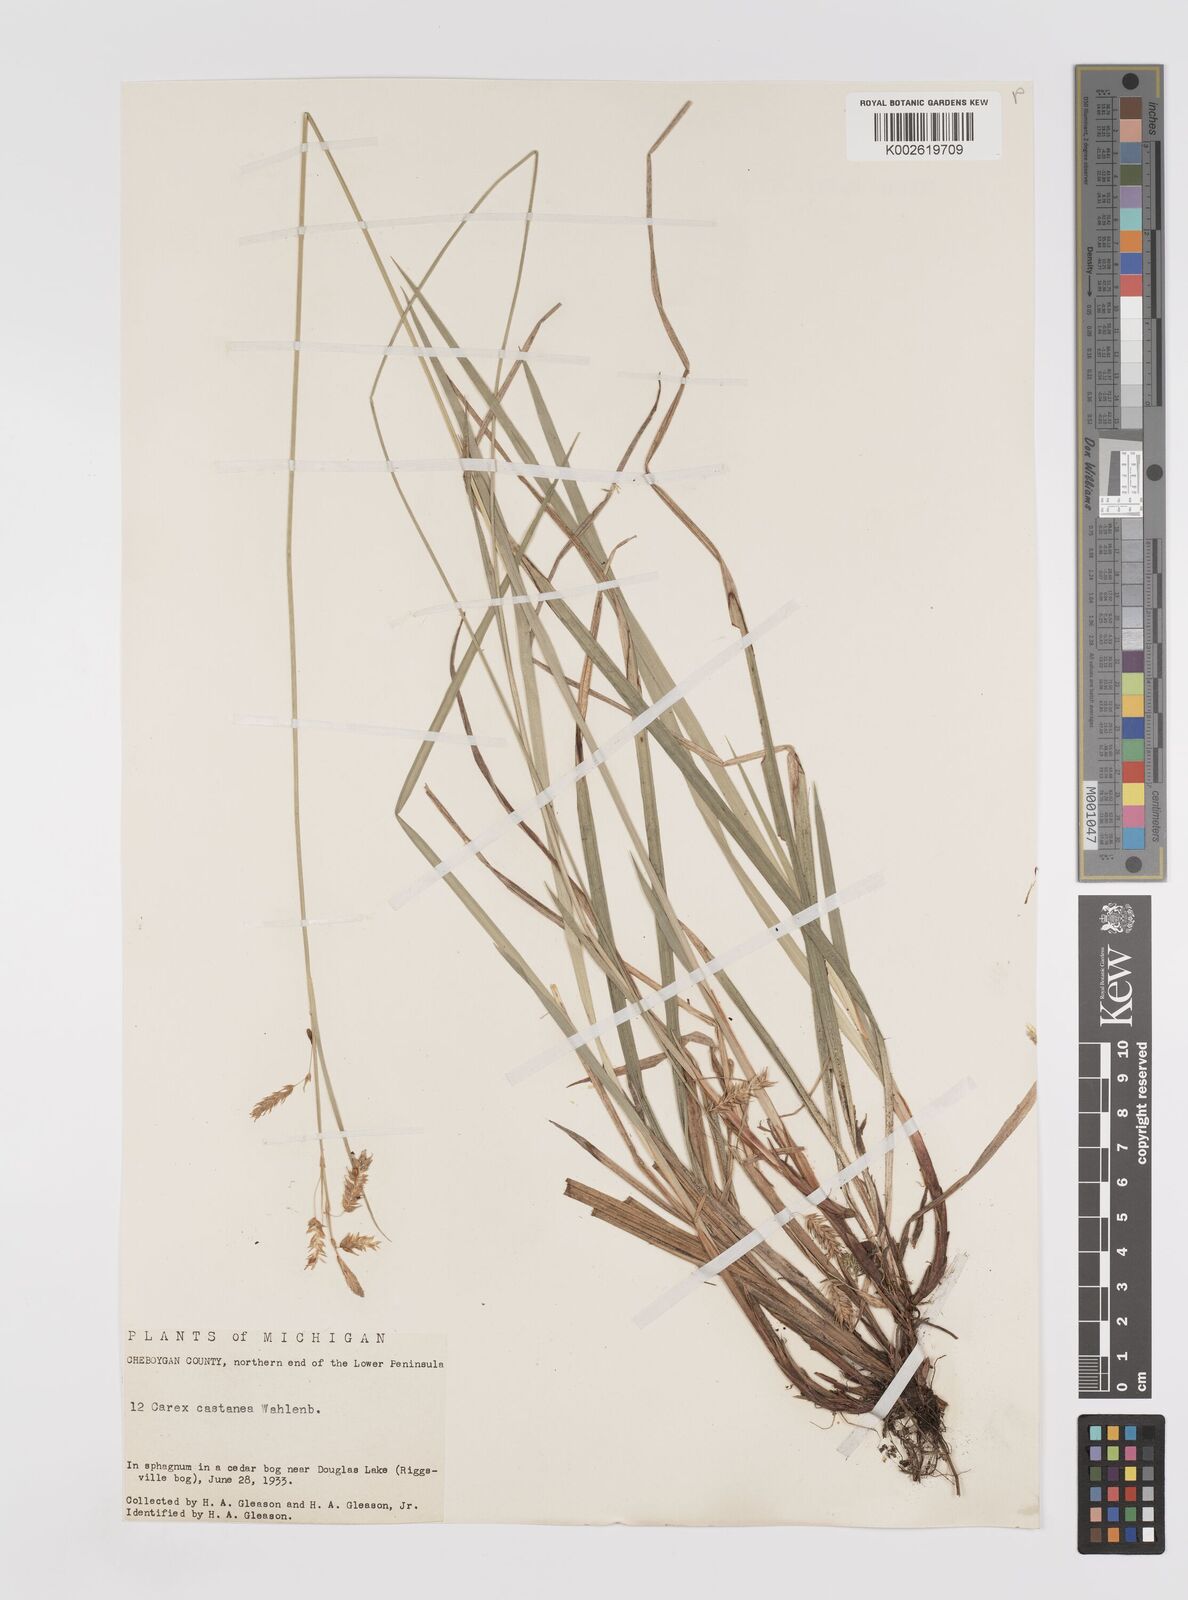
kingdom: Plantae
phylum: Tracheophyta
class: Liliopsida
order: Poales
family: Cyperaceae
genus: Carex
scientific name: Carex castanea
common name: Chestnut sedge
